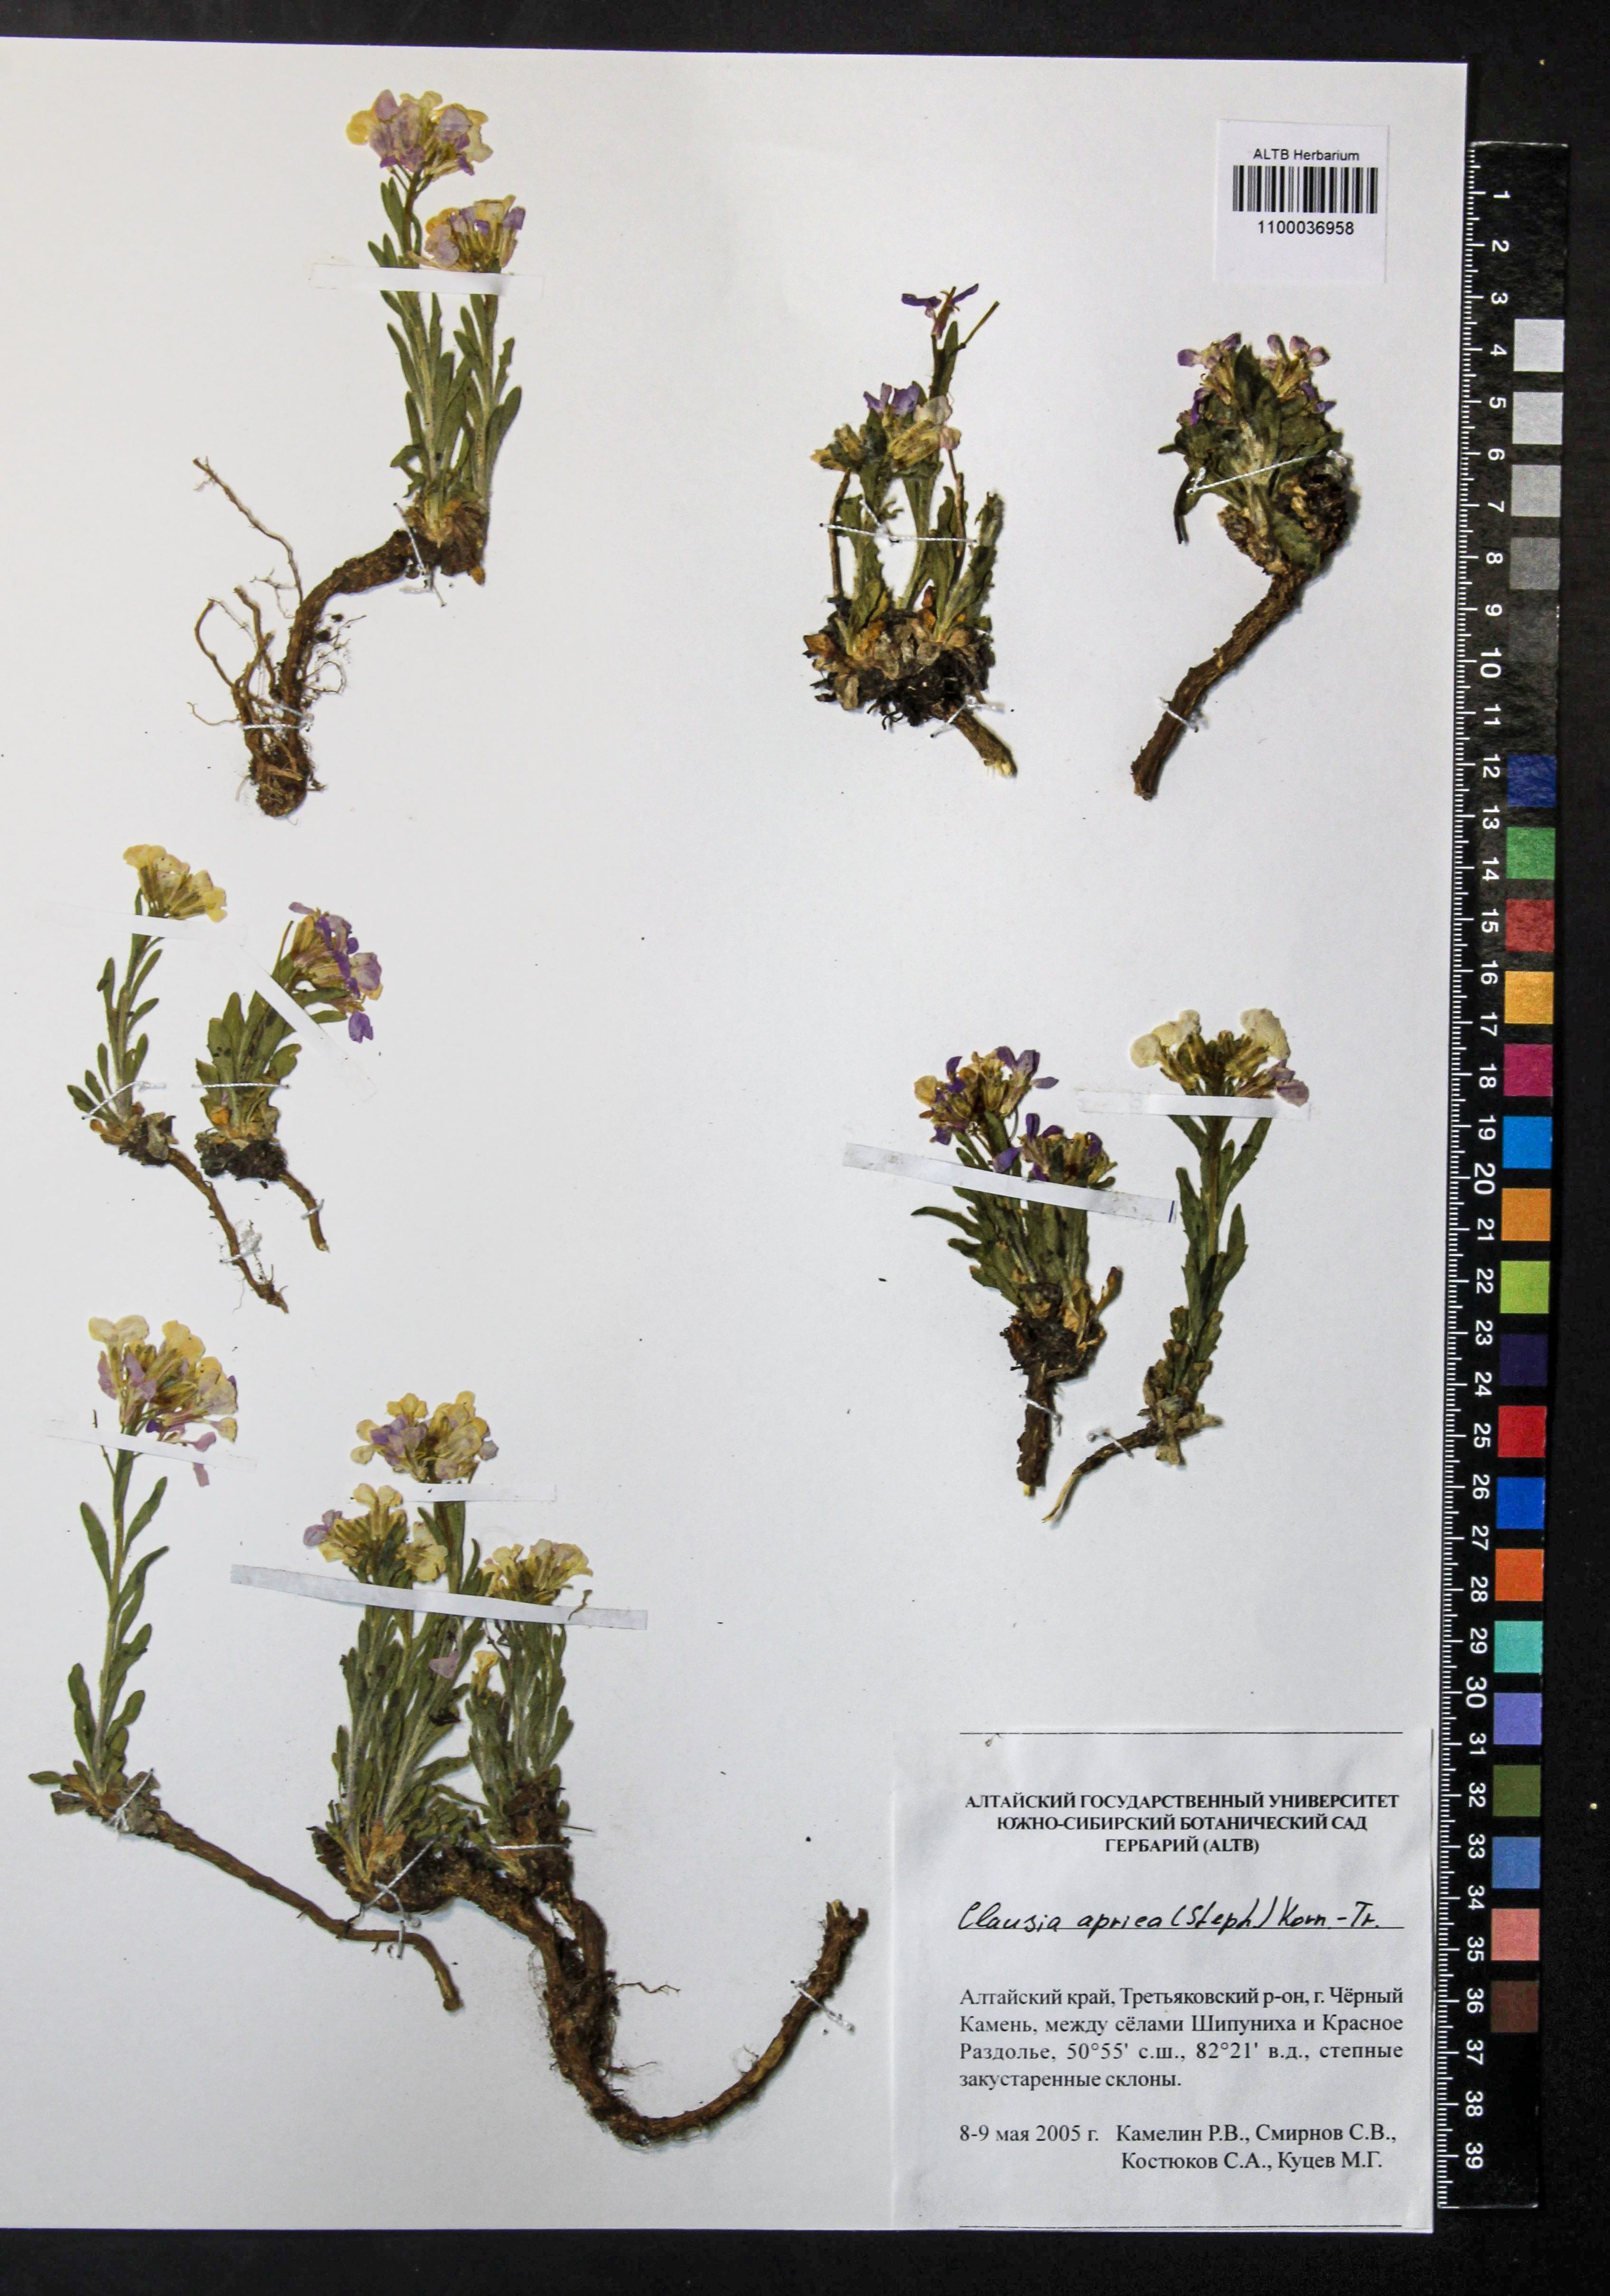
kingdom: Plantae
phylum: Tracheophyta
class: Magnoliopsida
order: Brassicales
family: Brassicaceae
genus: Clausia
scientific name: Clausia aprica
